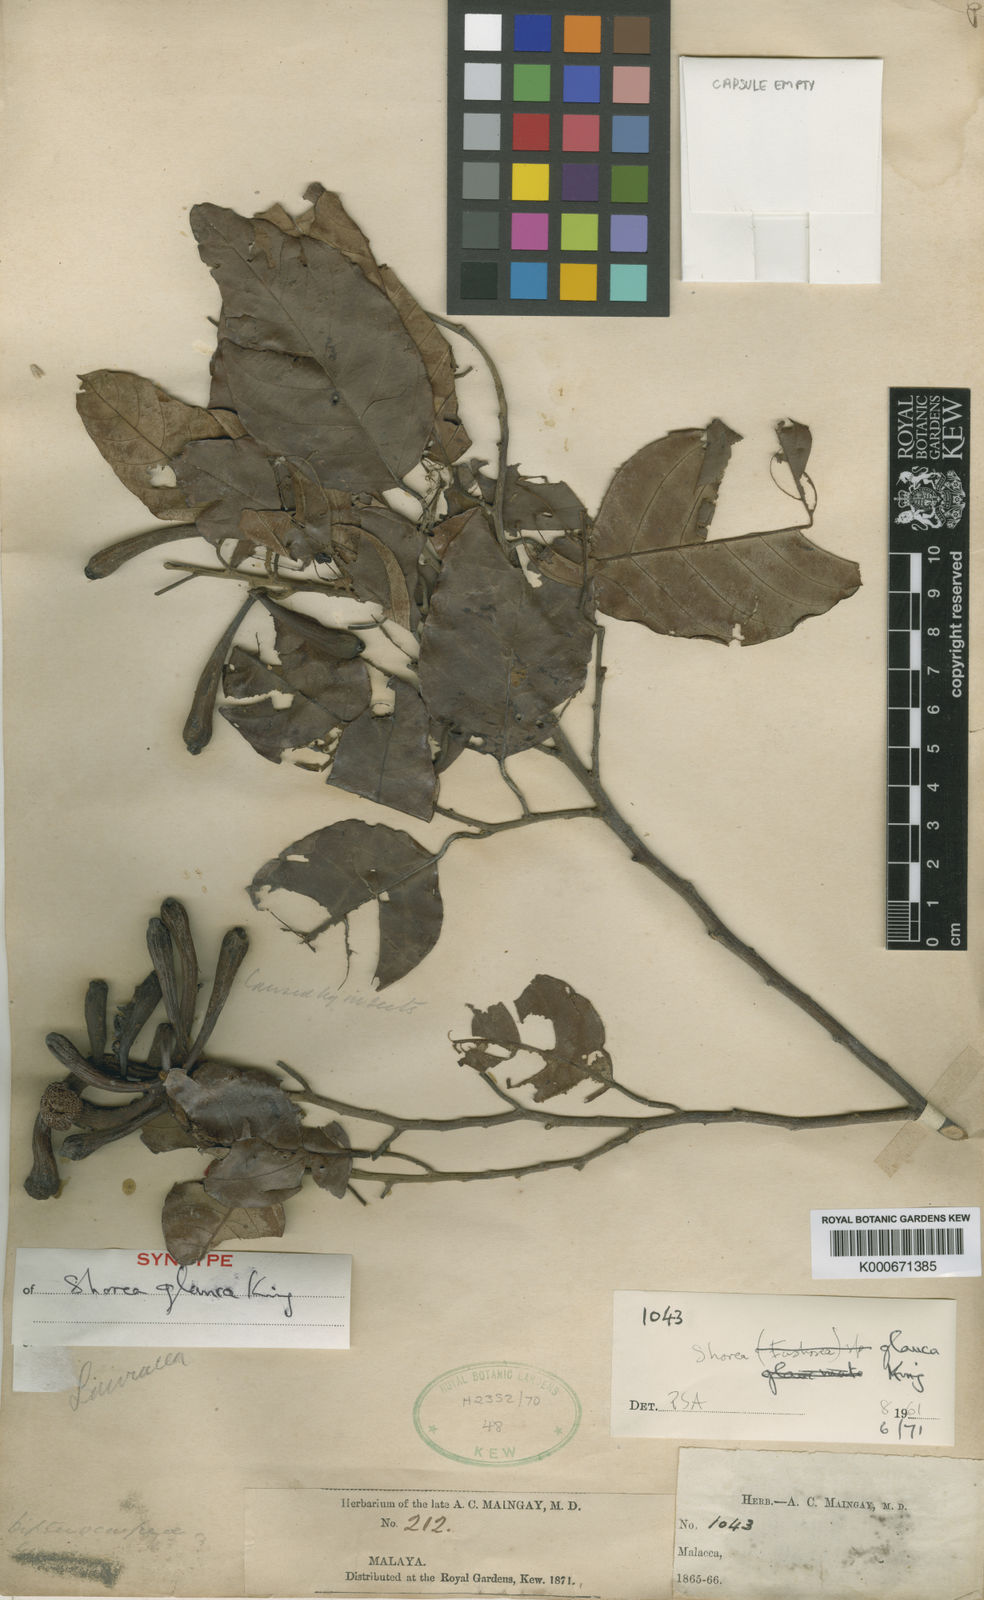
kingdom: Plantae
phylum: Tracheophyta
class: Magnoliopsida
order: Malvales
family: Dipterocarpaceae
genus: Shorea
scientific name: Shorea glauca
